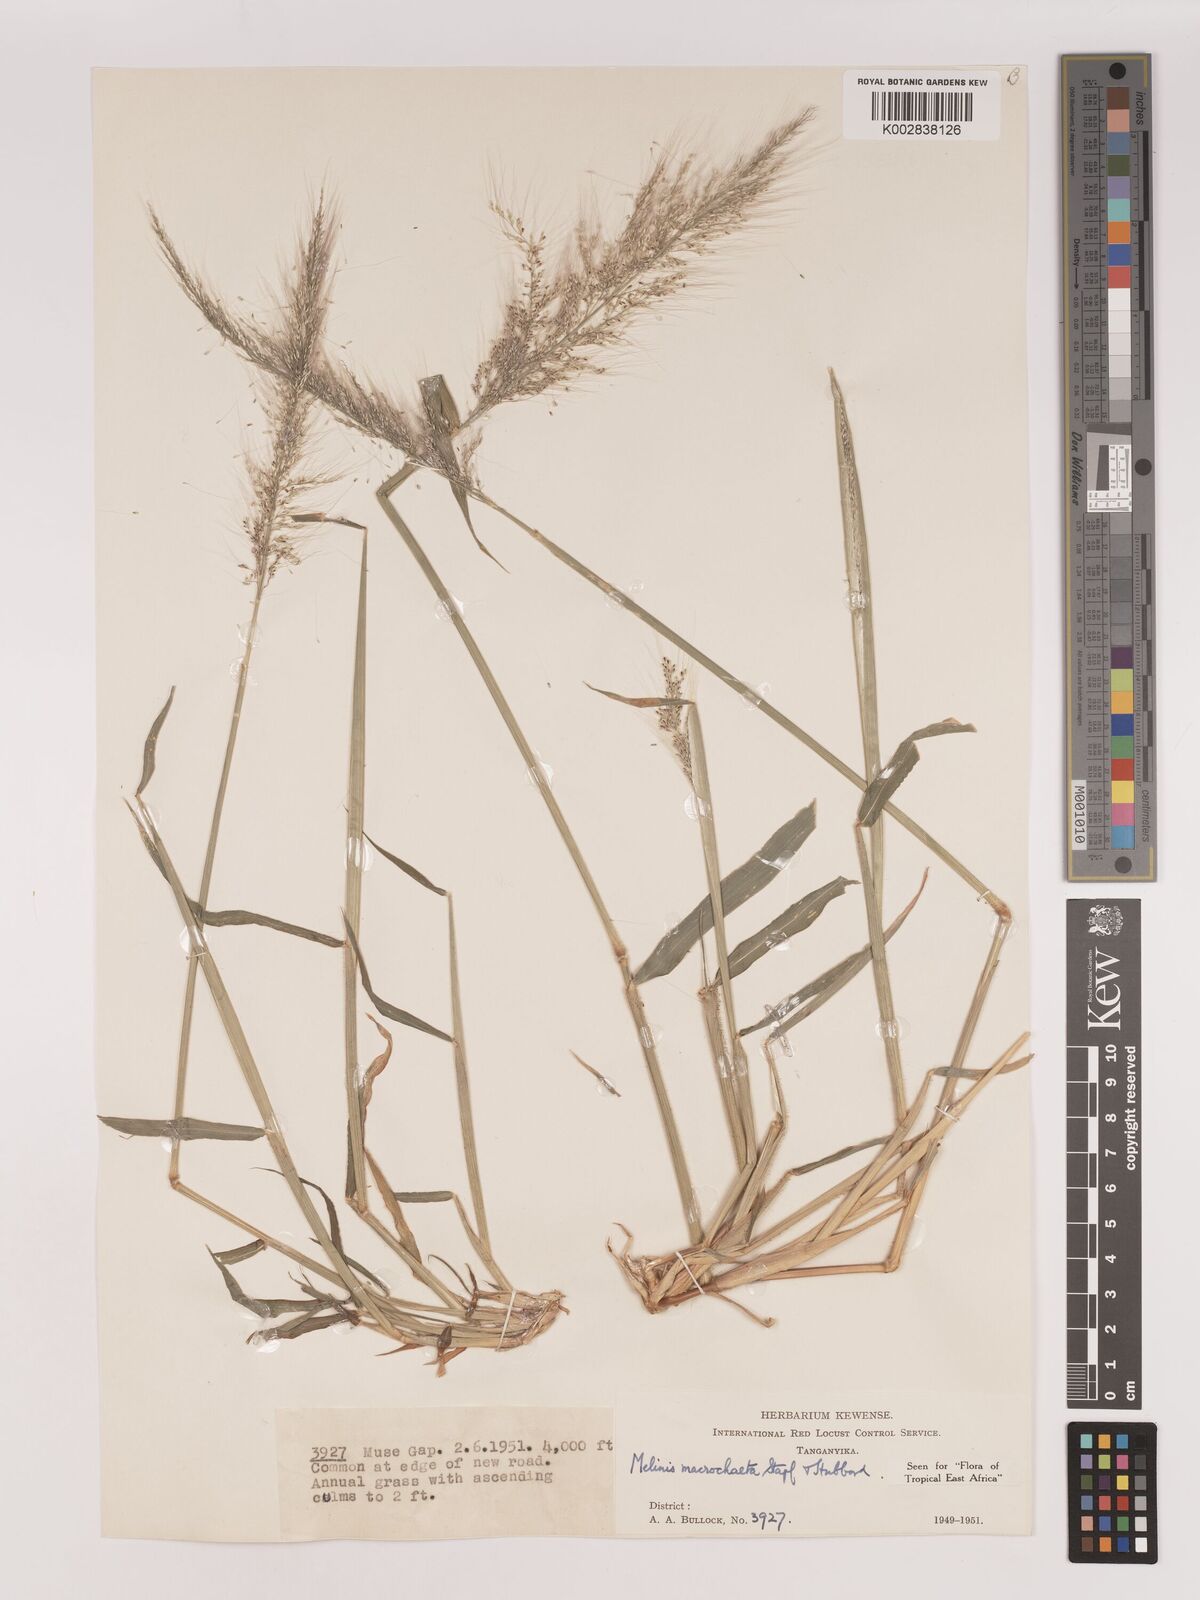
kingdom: Plantae
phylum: Tracheophyta
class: Liliopsida
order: Poales
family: Poaceae
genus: Melinis
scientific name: Melinis macrochaeta
